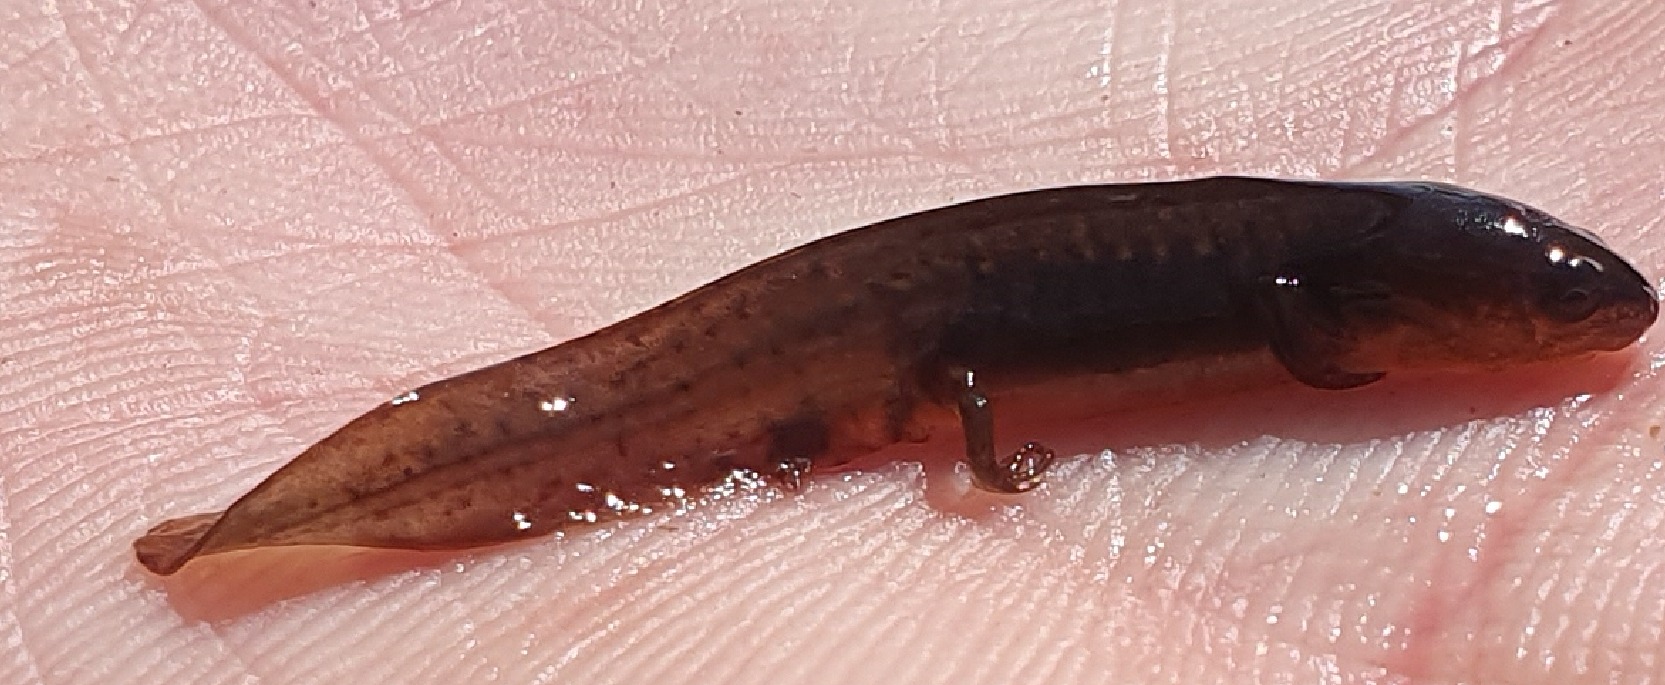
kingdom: Animalia
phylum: Chordata
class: Amphibia
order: Caudata
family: Salamandridae
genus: Lissotriton
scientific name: Lissotriton vulgaris
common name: Lille vandsalamander
